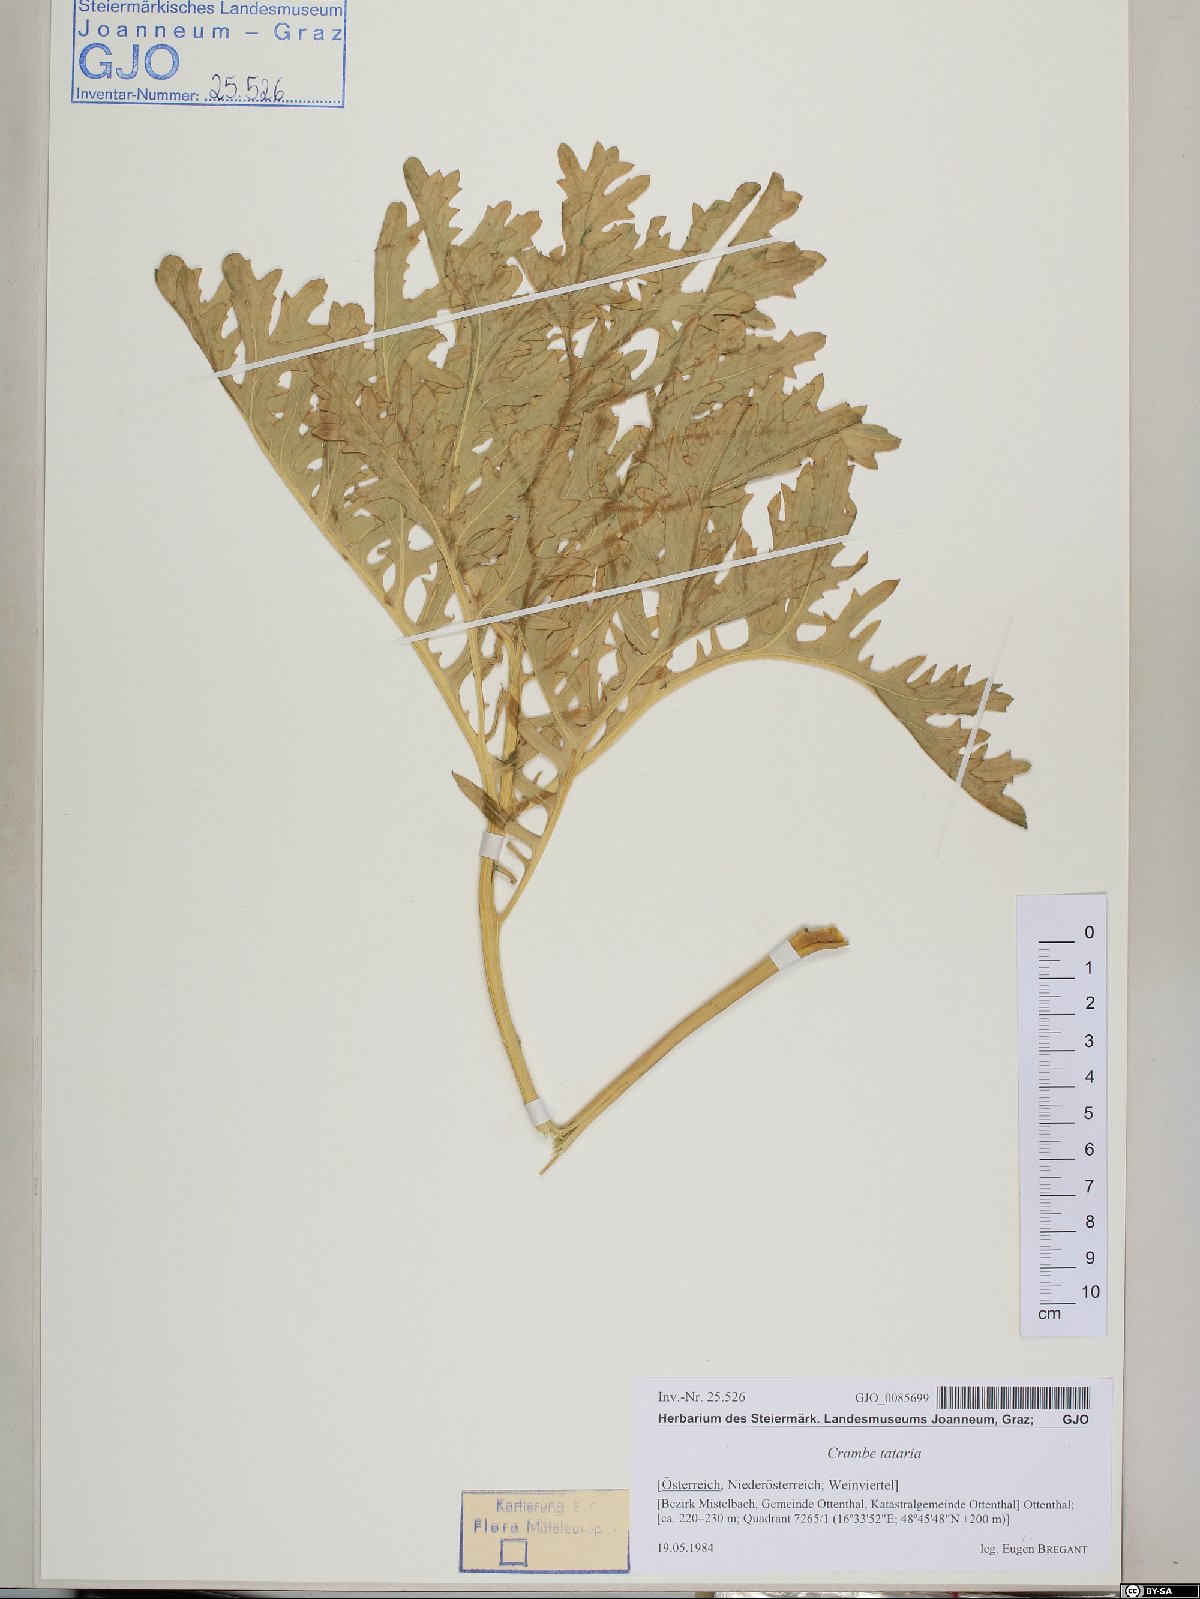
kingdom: Plantae
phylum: Tracheophyta
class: Magnoliopsida
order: Brassicales
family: Brassicaceae
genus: Crambe
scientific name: Crambe tataria
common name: Tartarian breadplant
